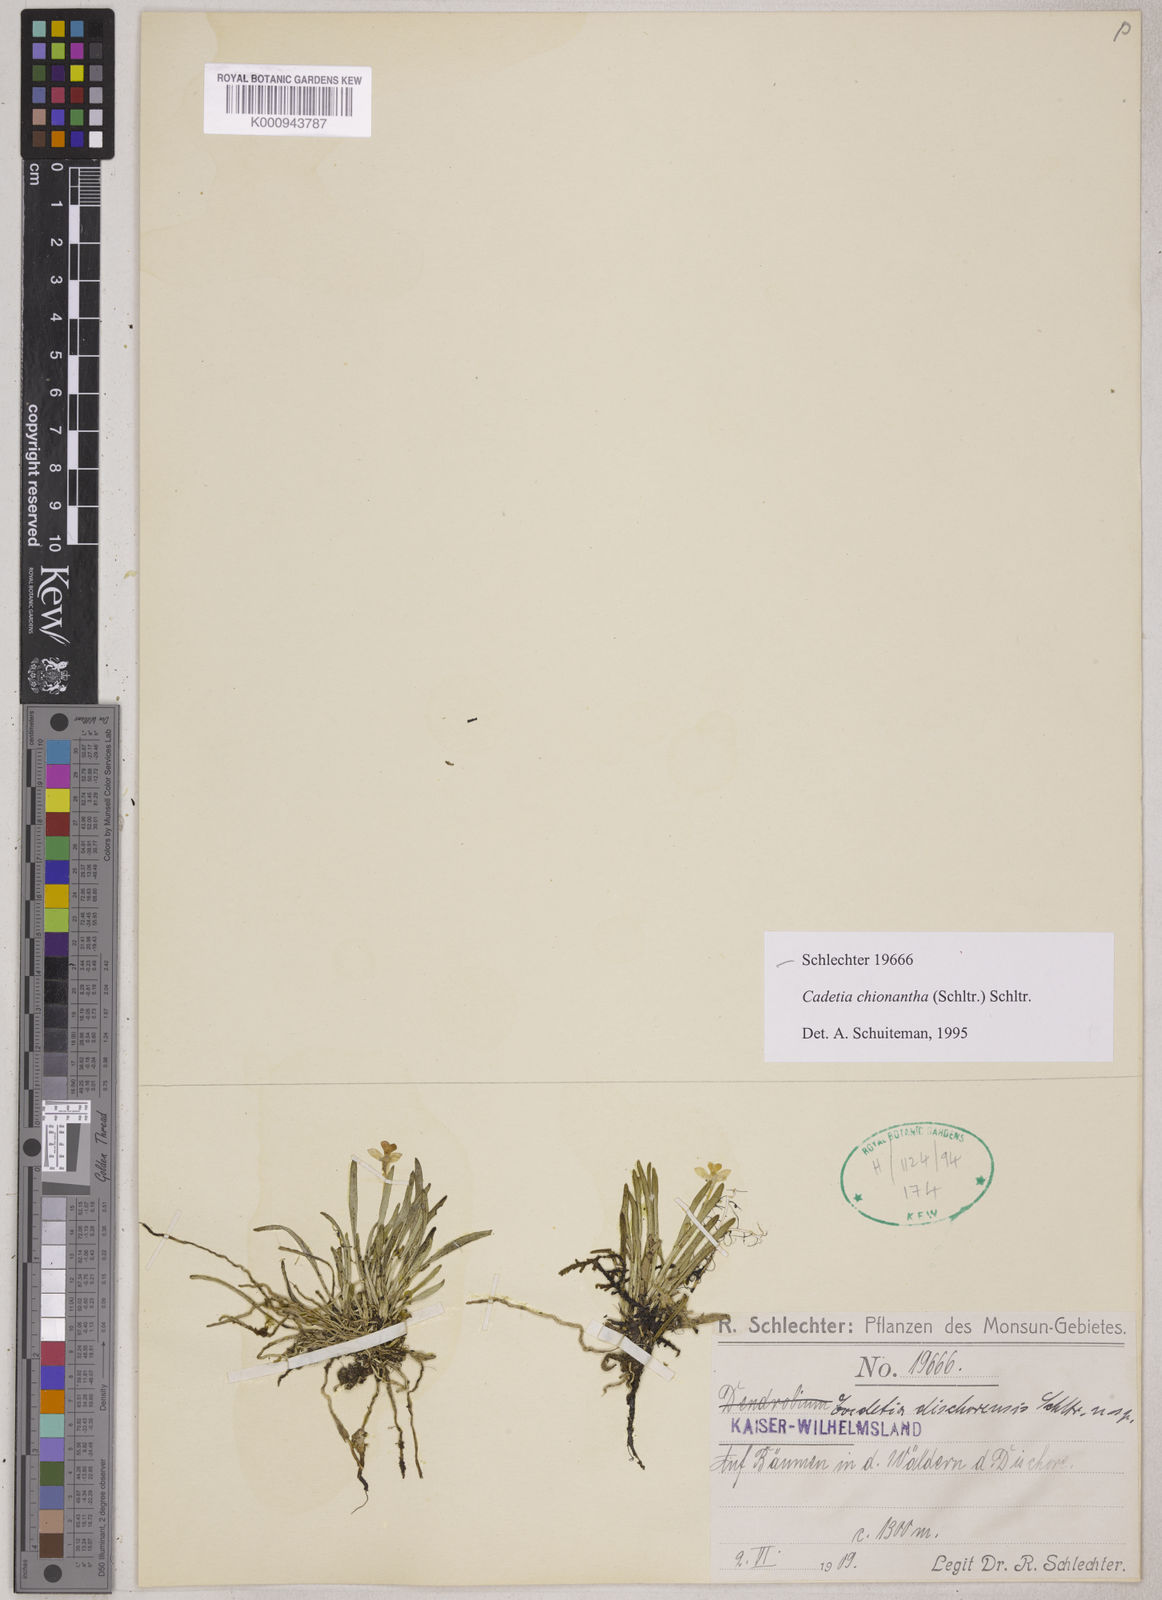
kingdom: Plantae
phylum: Tracheophyta
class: Liliopsida
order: Asparagales
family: Orchidaceae
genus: Dendrobium
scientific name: Dendrobium chionanthum
